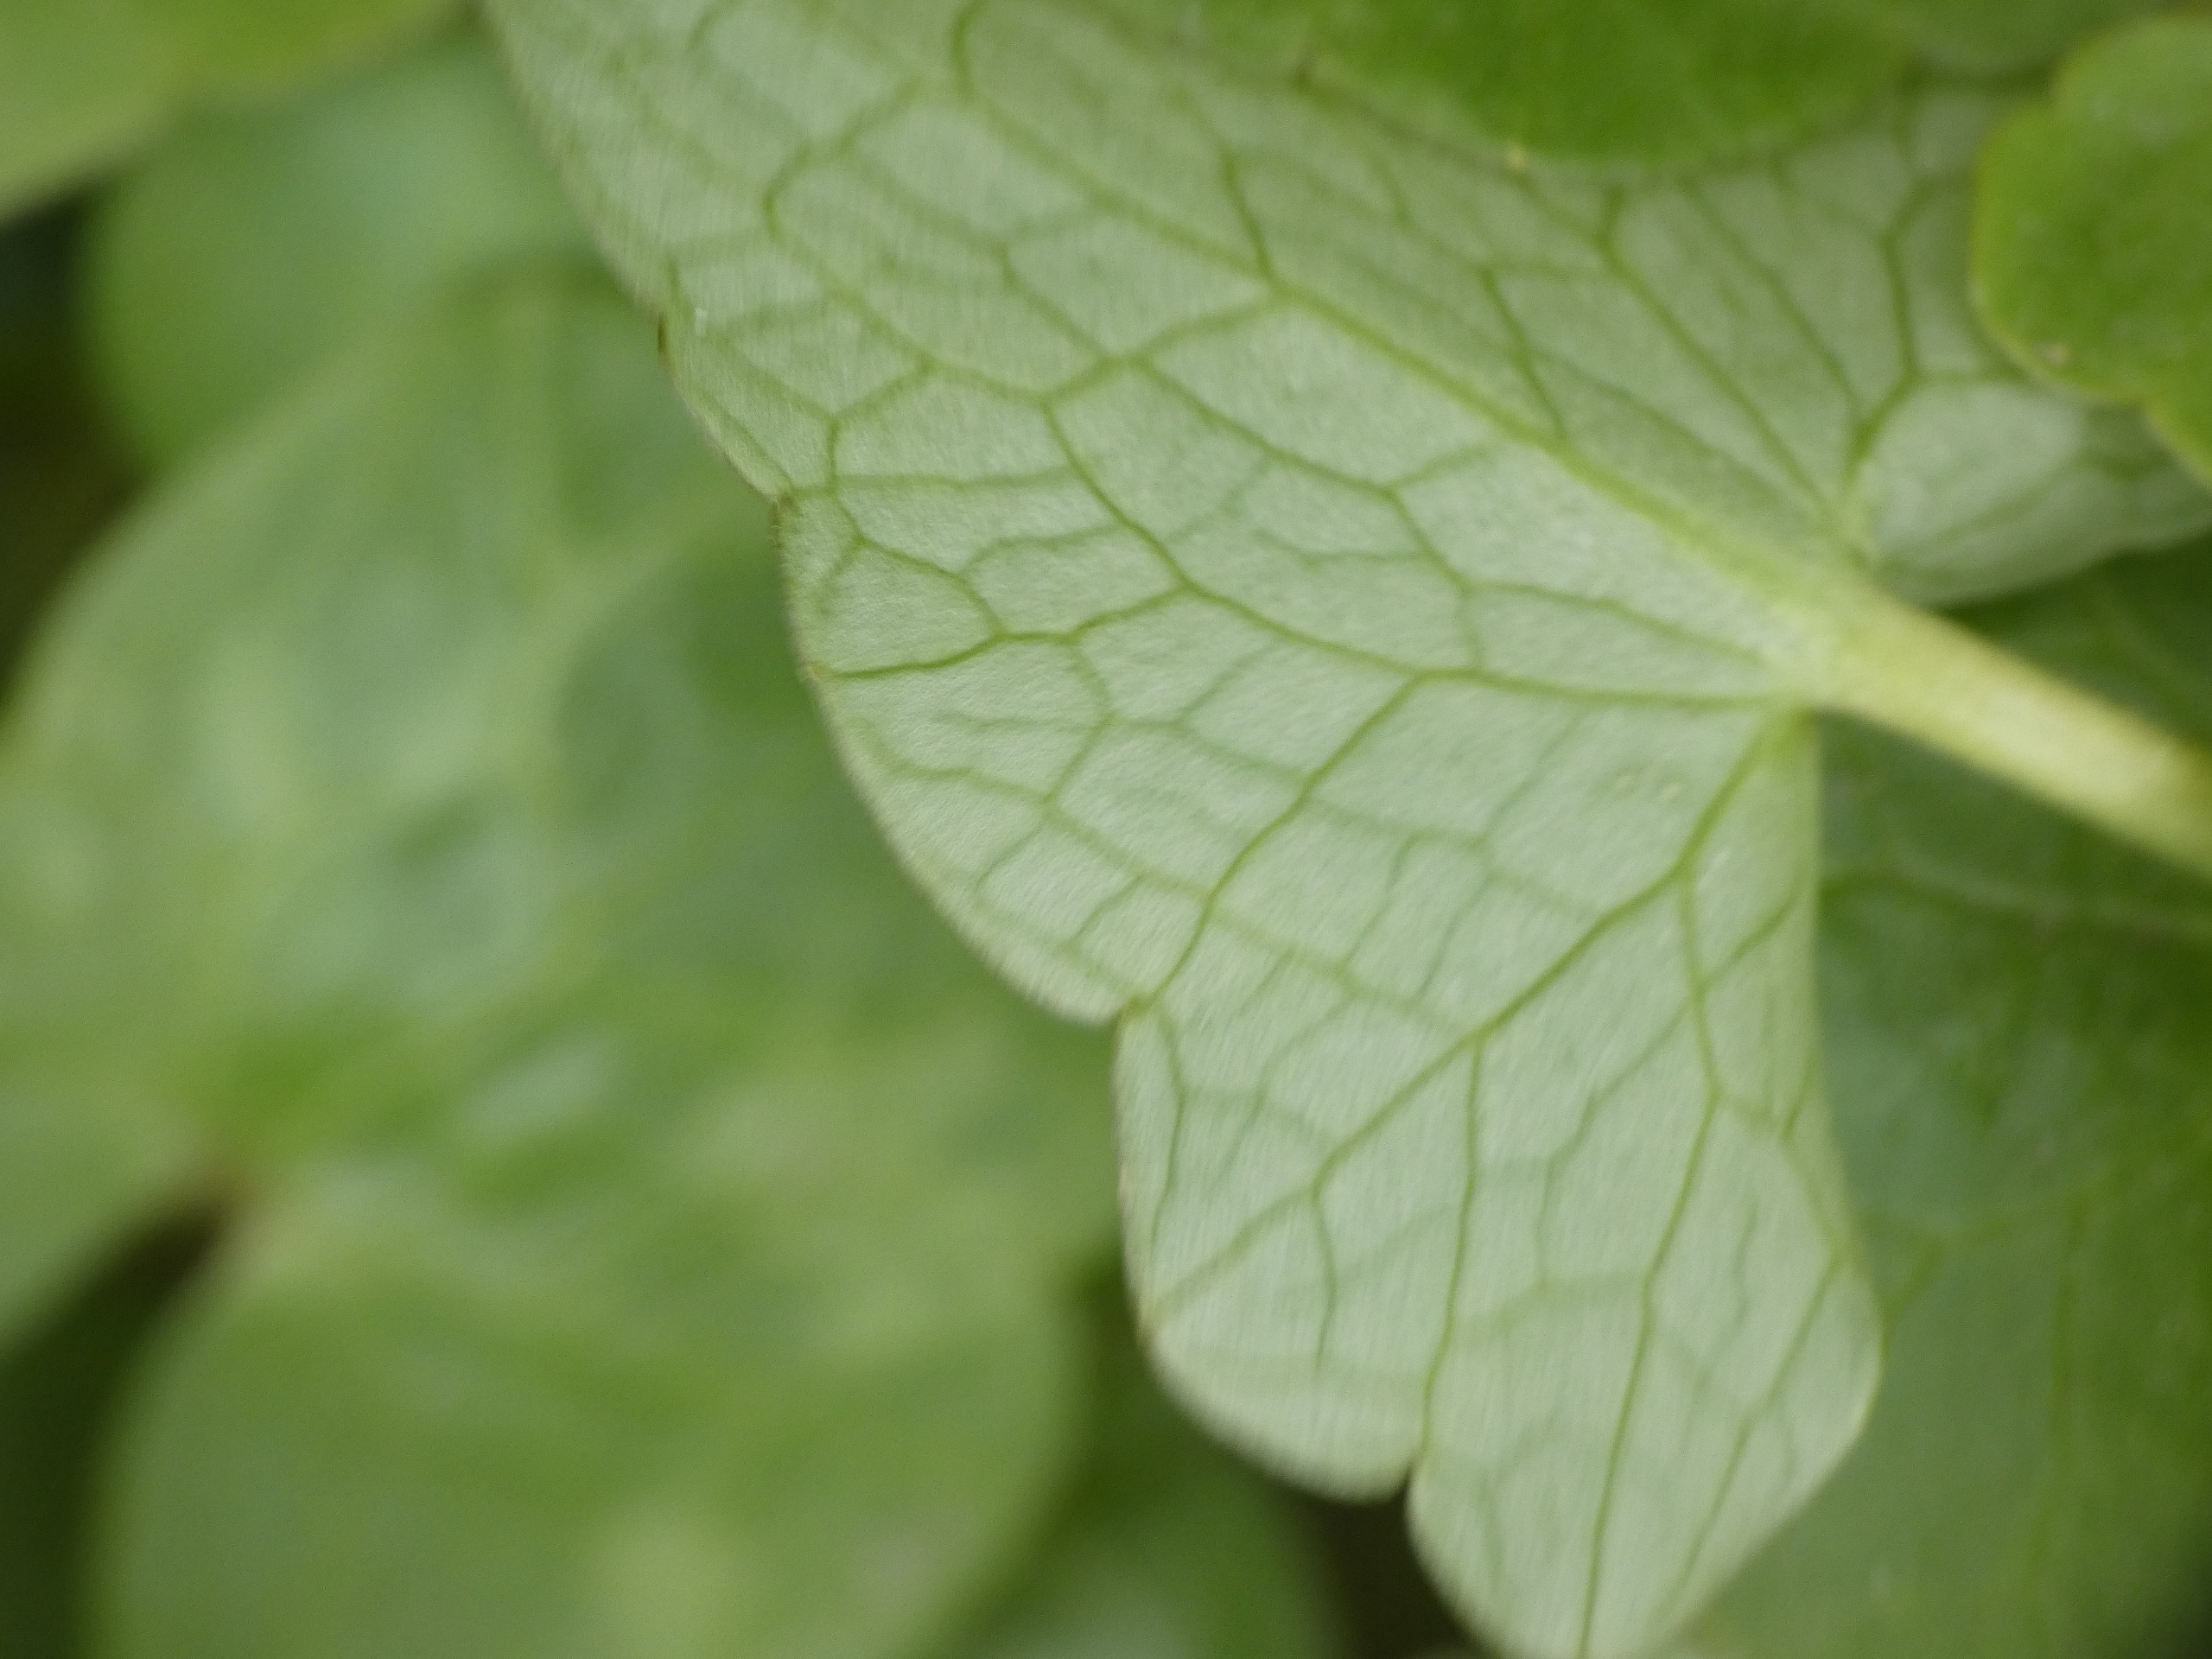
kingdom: Plantae
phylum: Tracheophyta
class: Magnoliopsida
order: Ranunculales
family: Ranunculaceae
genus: Ficaria
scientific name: Ficaria verna
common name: Vorterod
